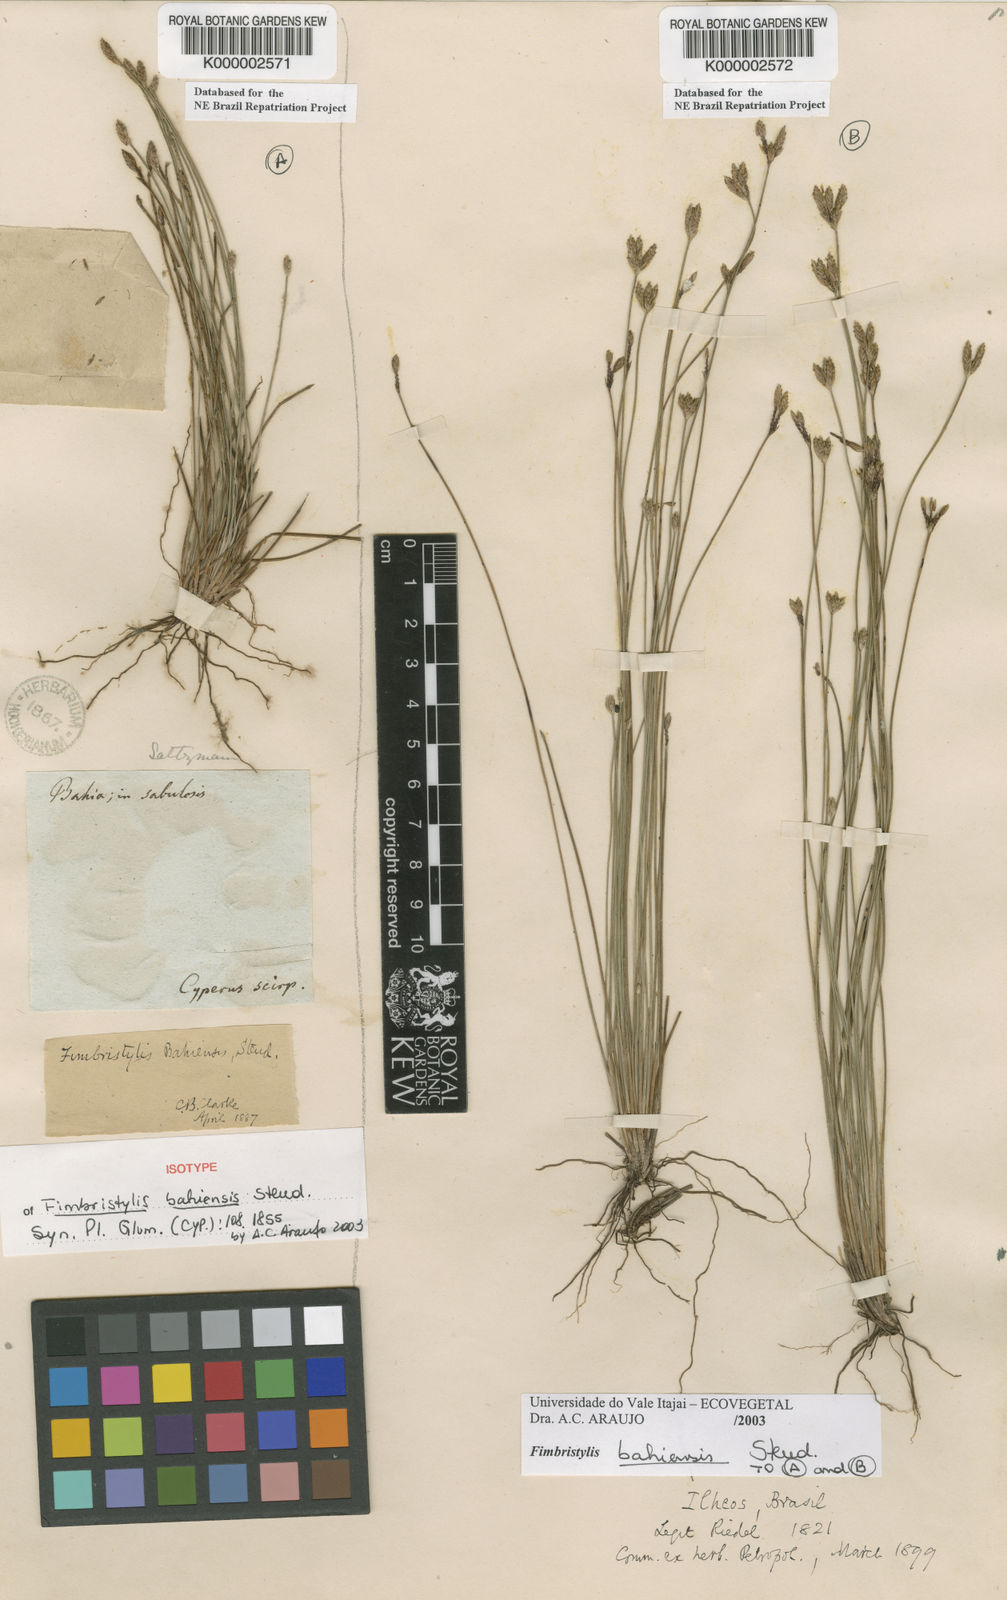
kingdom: Plantae
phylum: Tracheophyta
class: Liliopsida
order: Poales
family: Cyperaceae
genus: Fimbristylis
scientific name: Fimbristylis bahiensis
